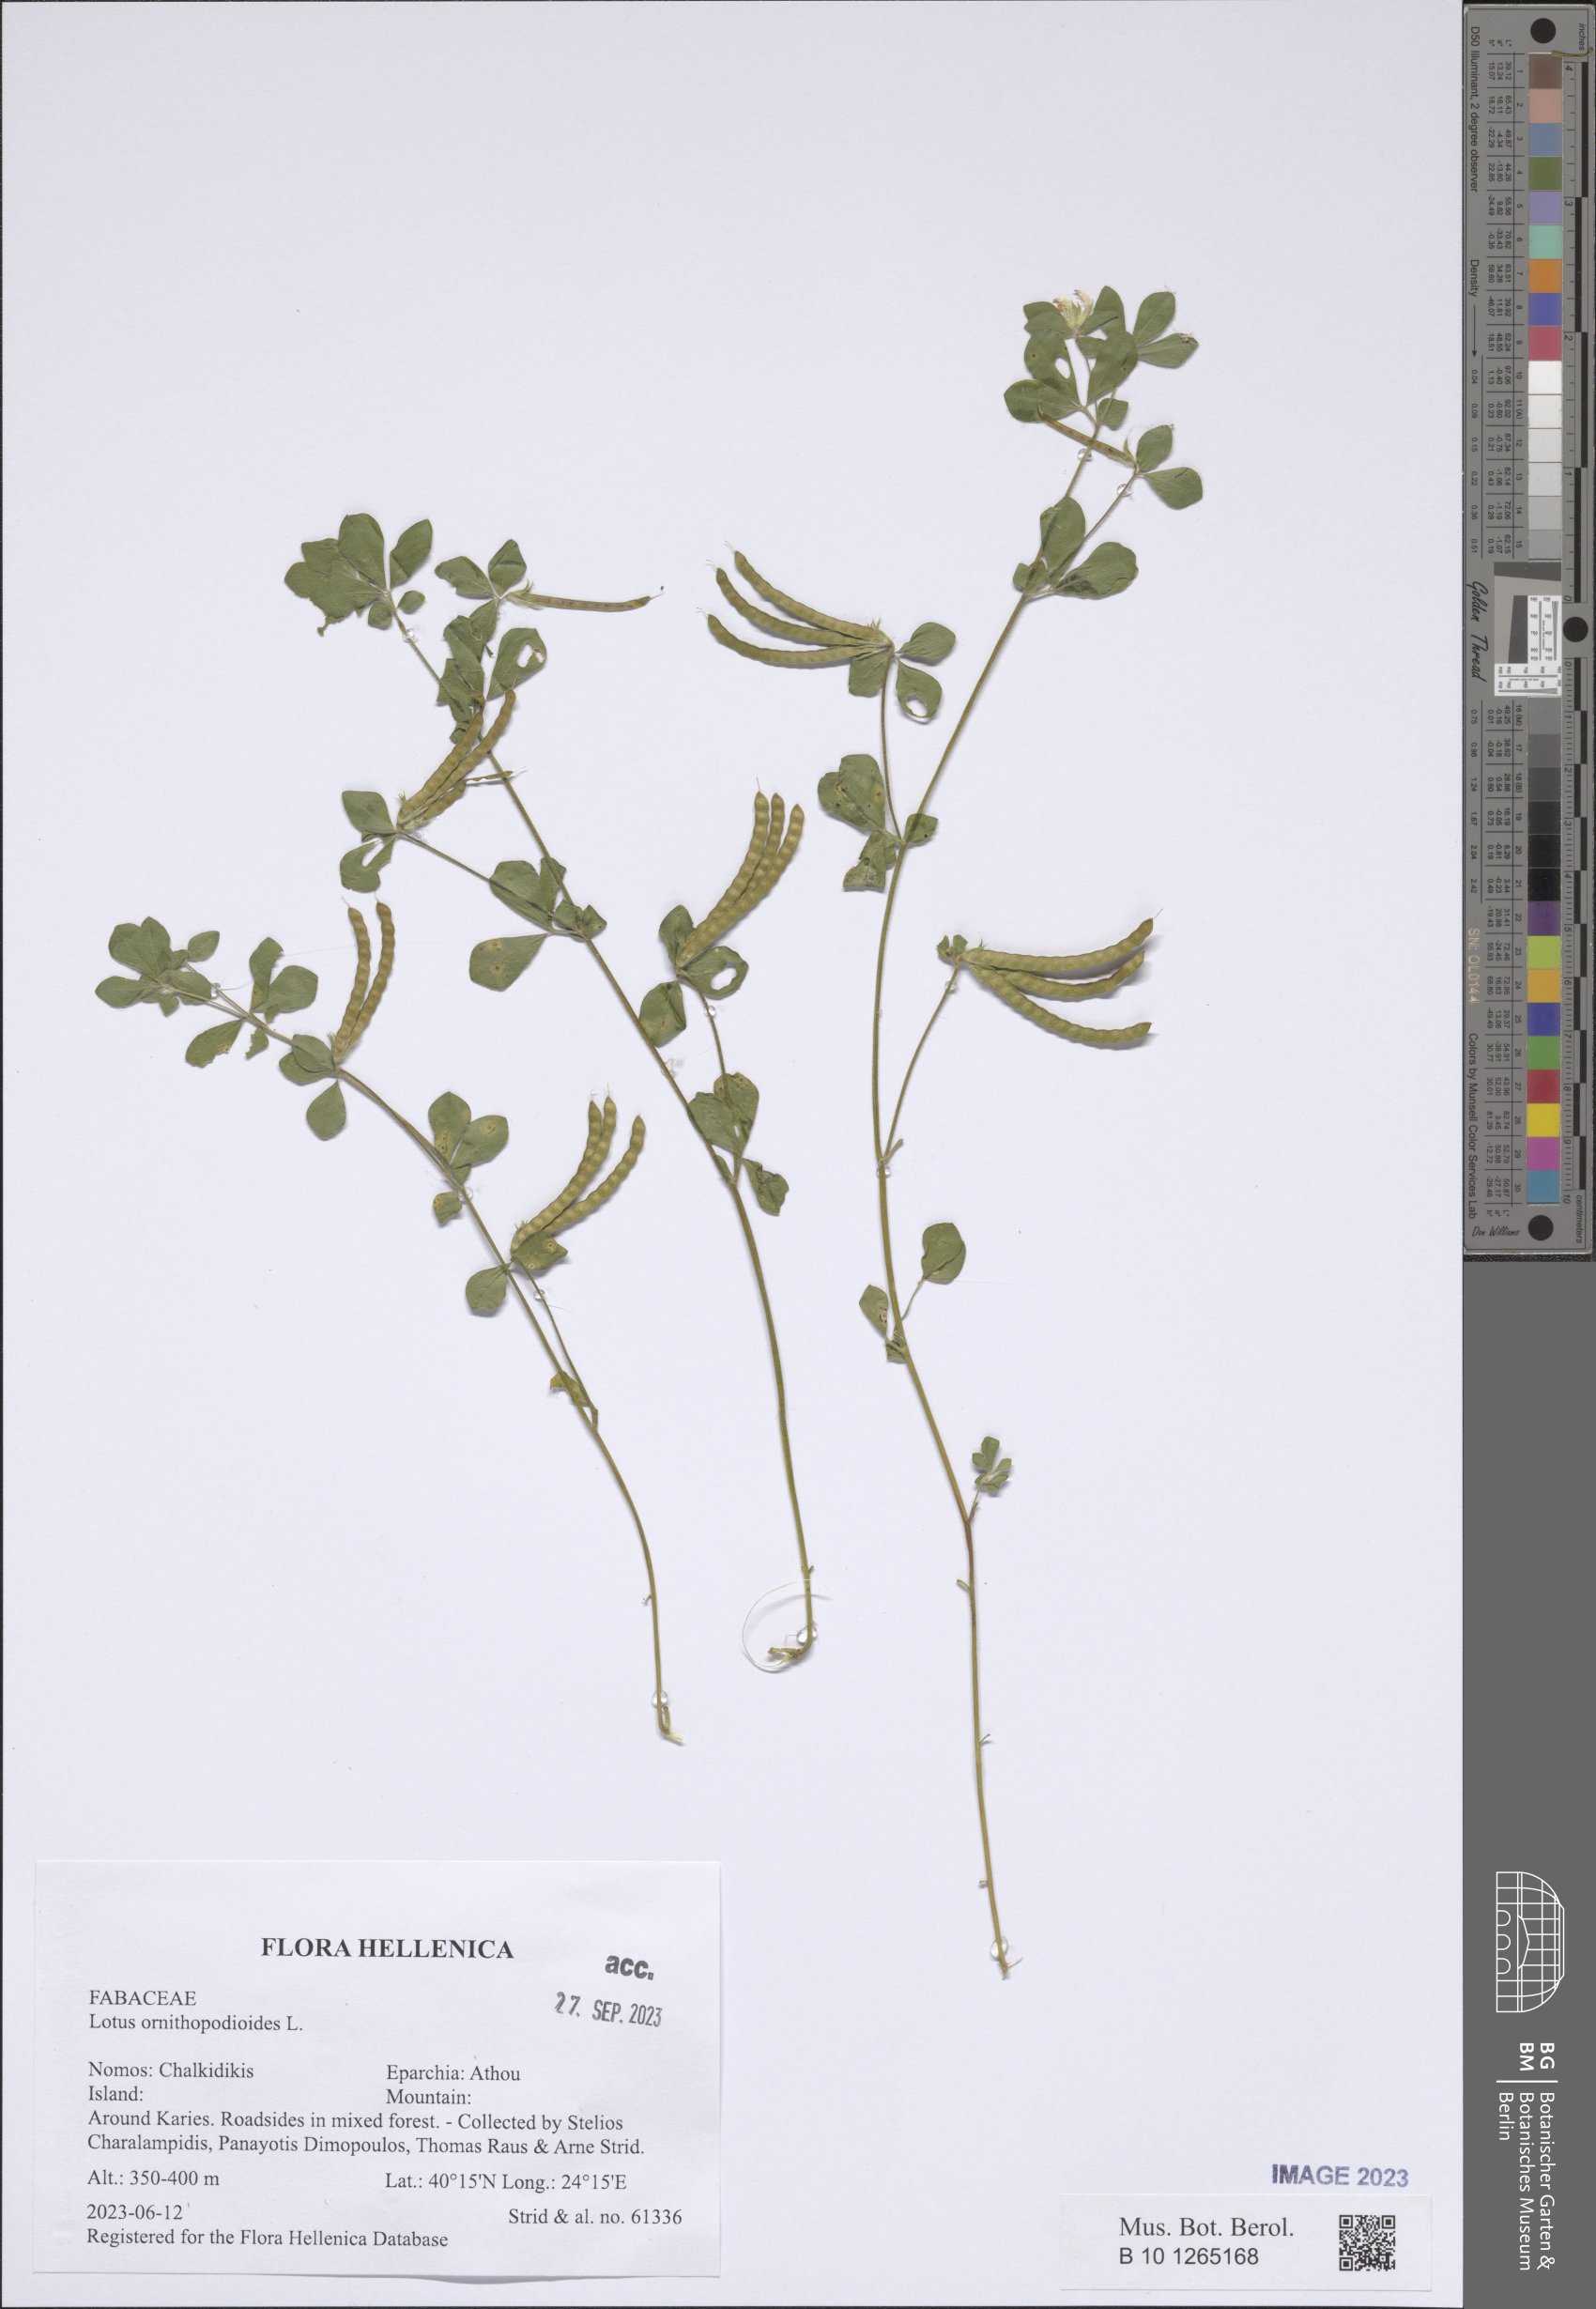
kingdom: Plantae
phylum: Tracheophyta
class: Magnoliopsida
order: Fabales
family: Fabaceae
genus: Lotus
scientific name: Lotus ornithopodioides
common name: Southern bird's-foot trefoil
